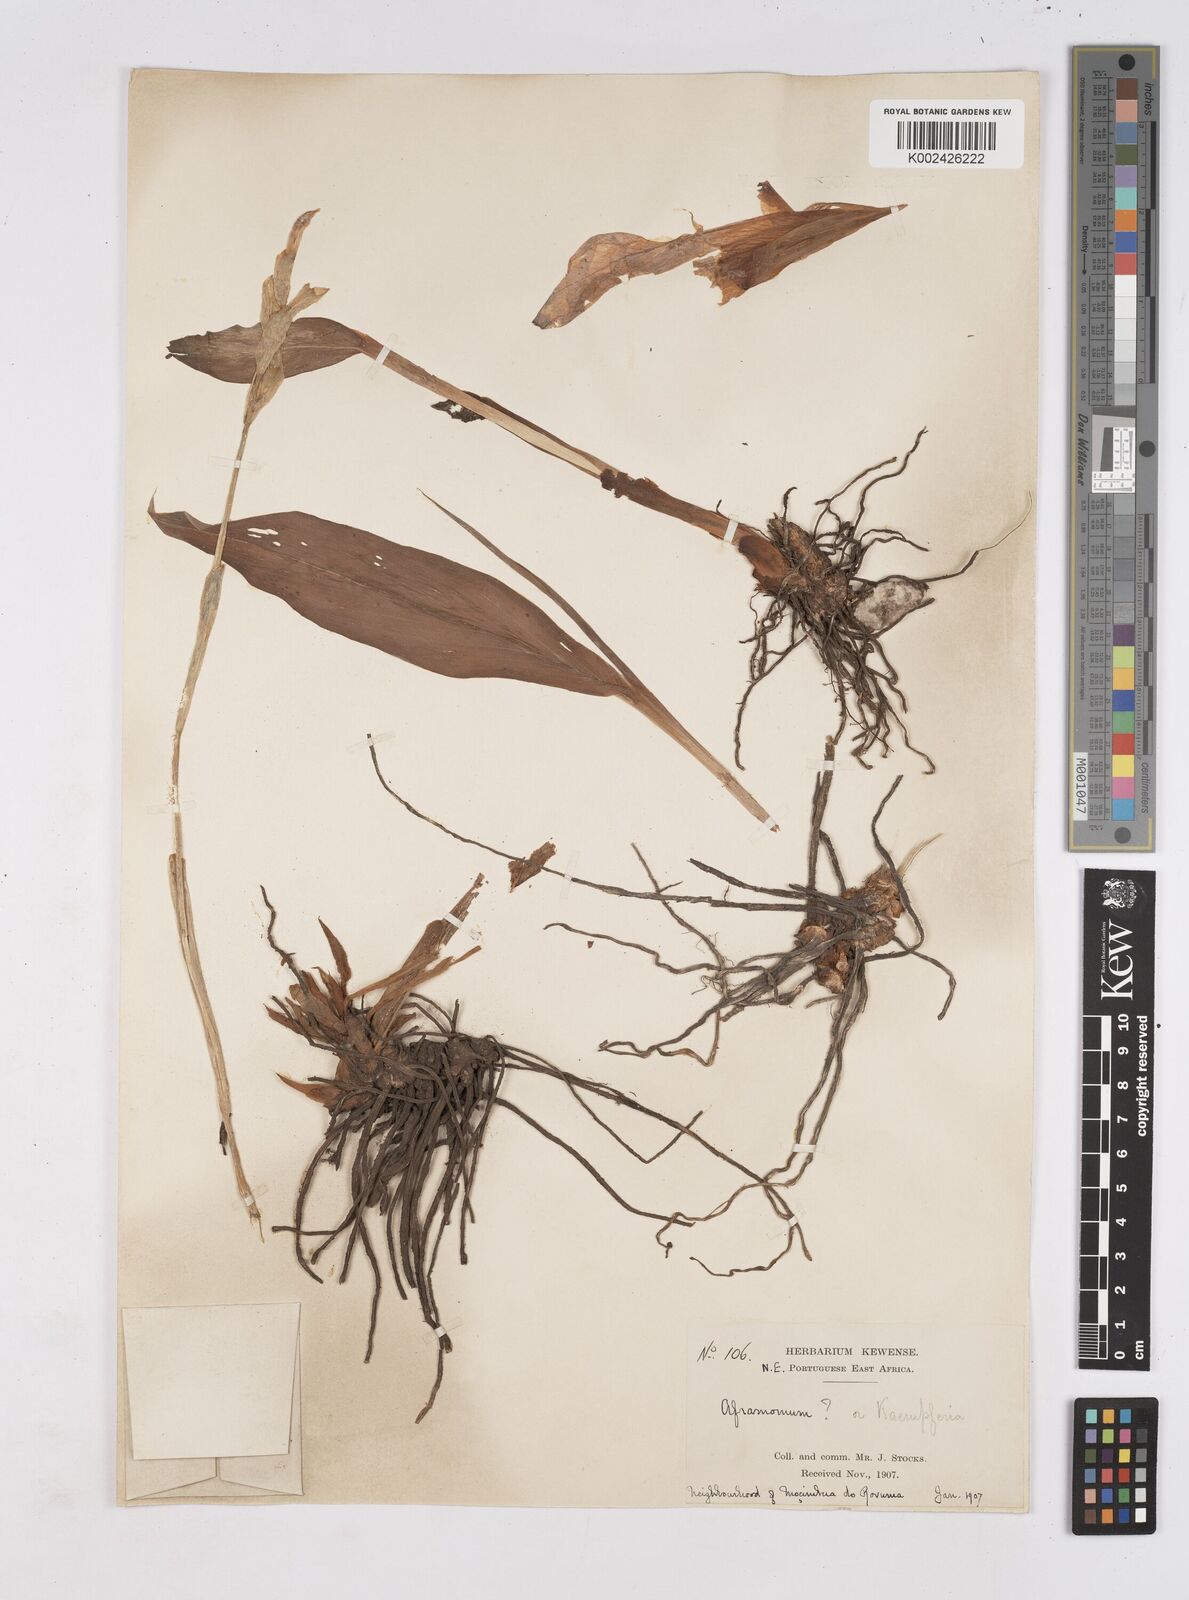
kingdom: Plantae
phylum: Tracheophyta
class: Liliopsida
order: Zingiberales
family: Zingiberaceae
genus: Siphonochilus
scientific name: Siphonochilus
